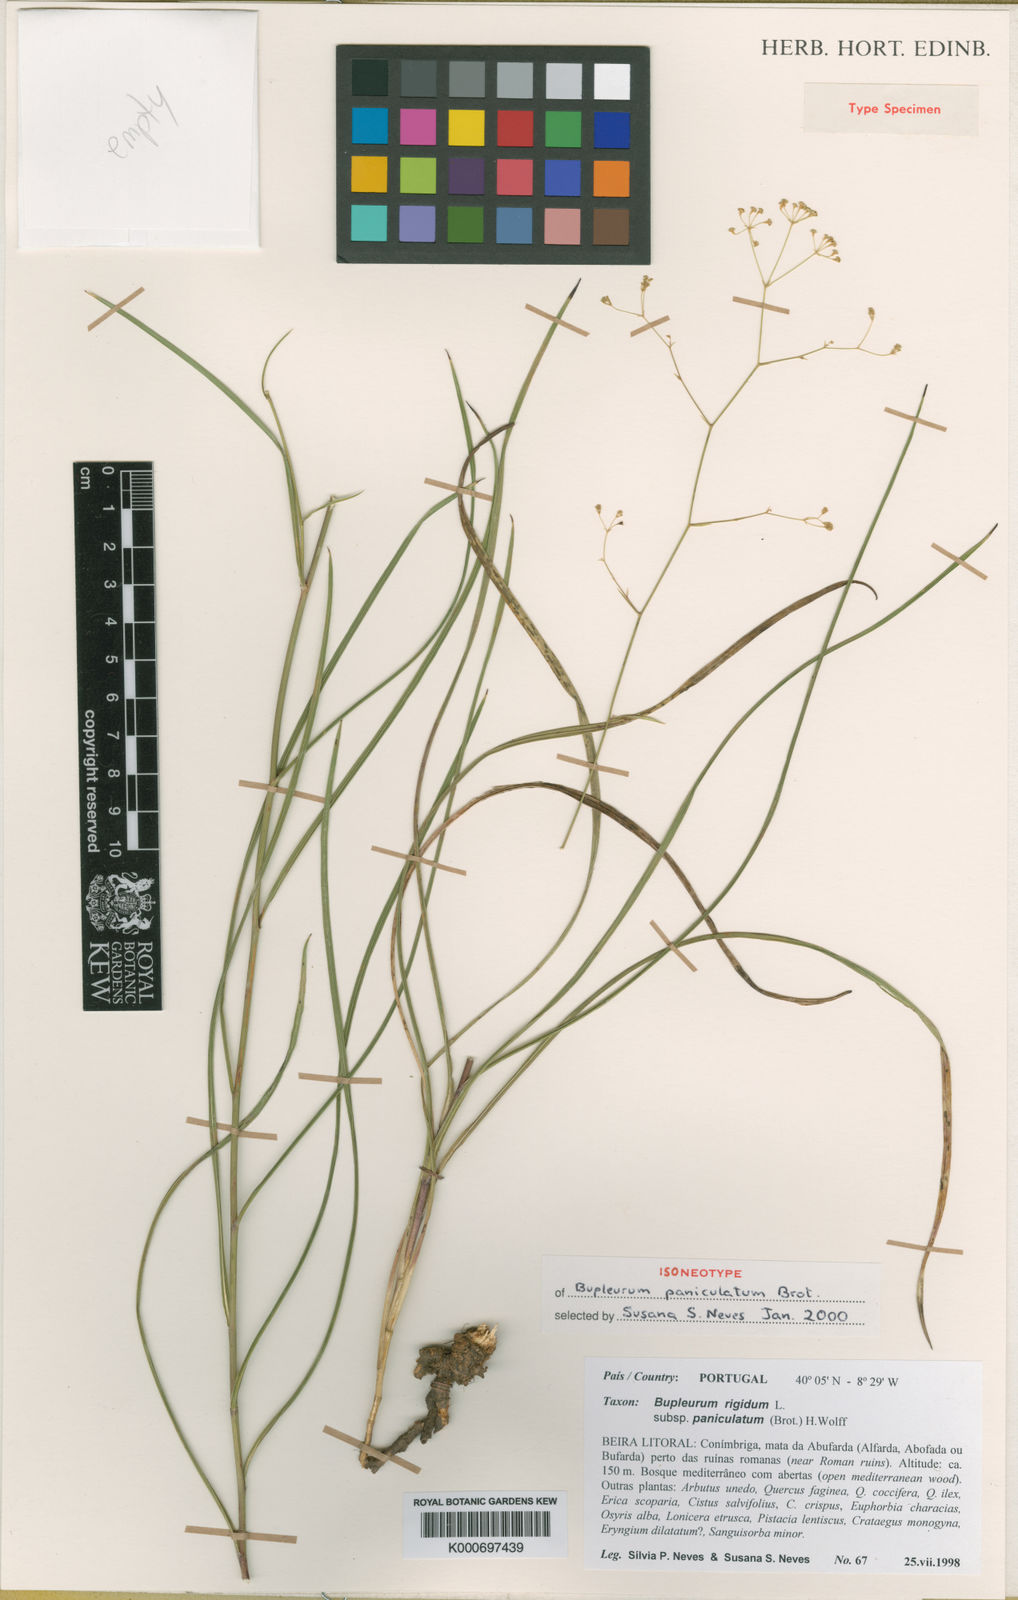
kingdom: Plantae
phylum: Tracheophyta
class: Magnoliopsida
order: Apiales
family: Apiaceae
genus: Bupleurum
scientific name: Bupleurum rigidum
